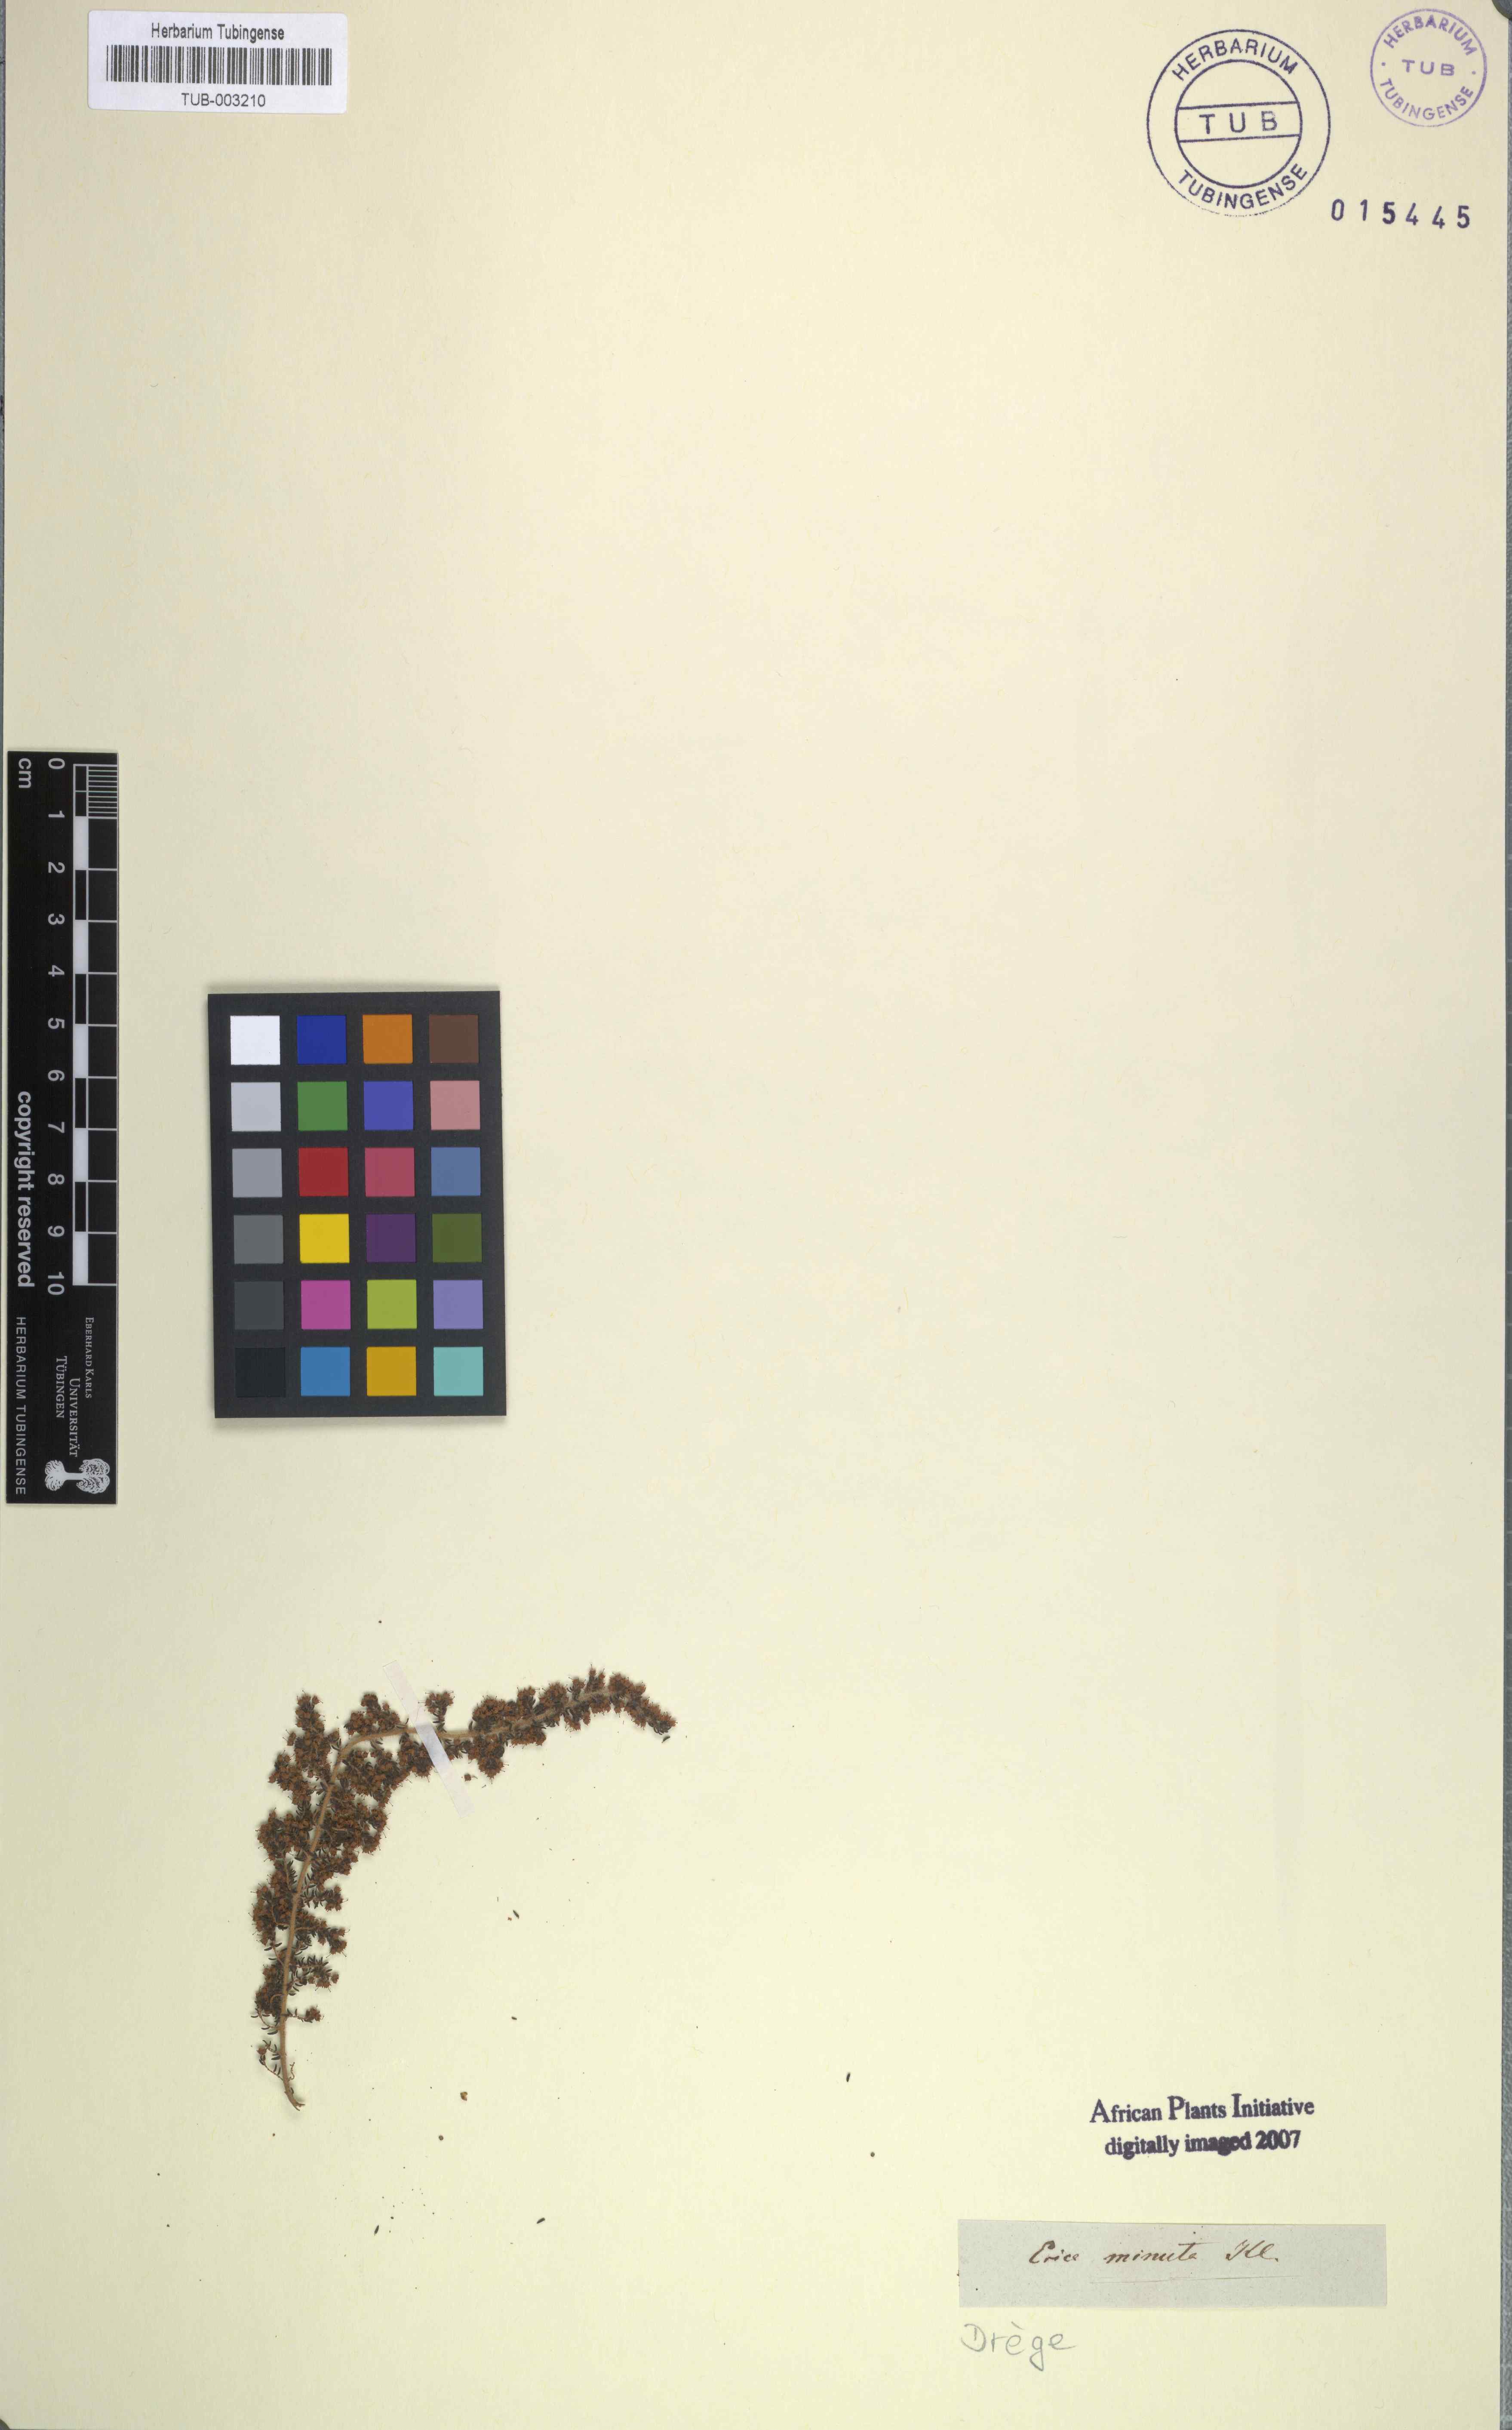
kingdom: Plantae
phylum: Tracheophyta
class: Magnoliopsida
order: Ericales
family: Ericaceae
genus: Erica
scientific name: Erica hispidula
